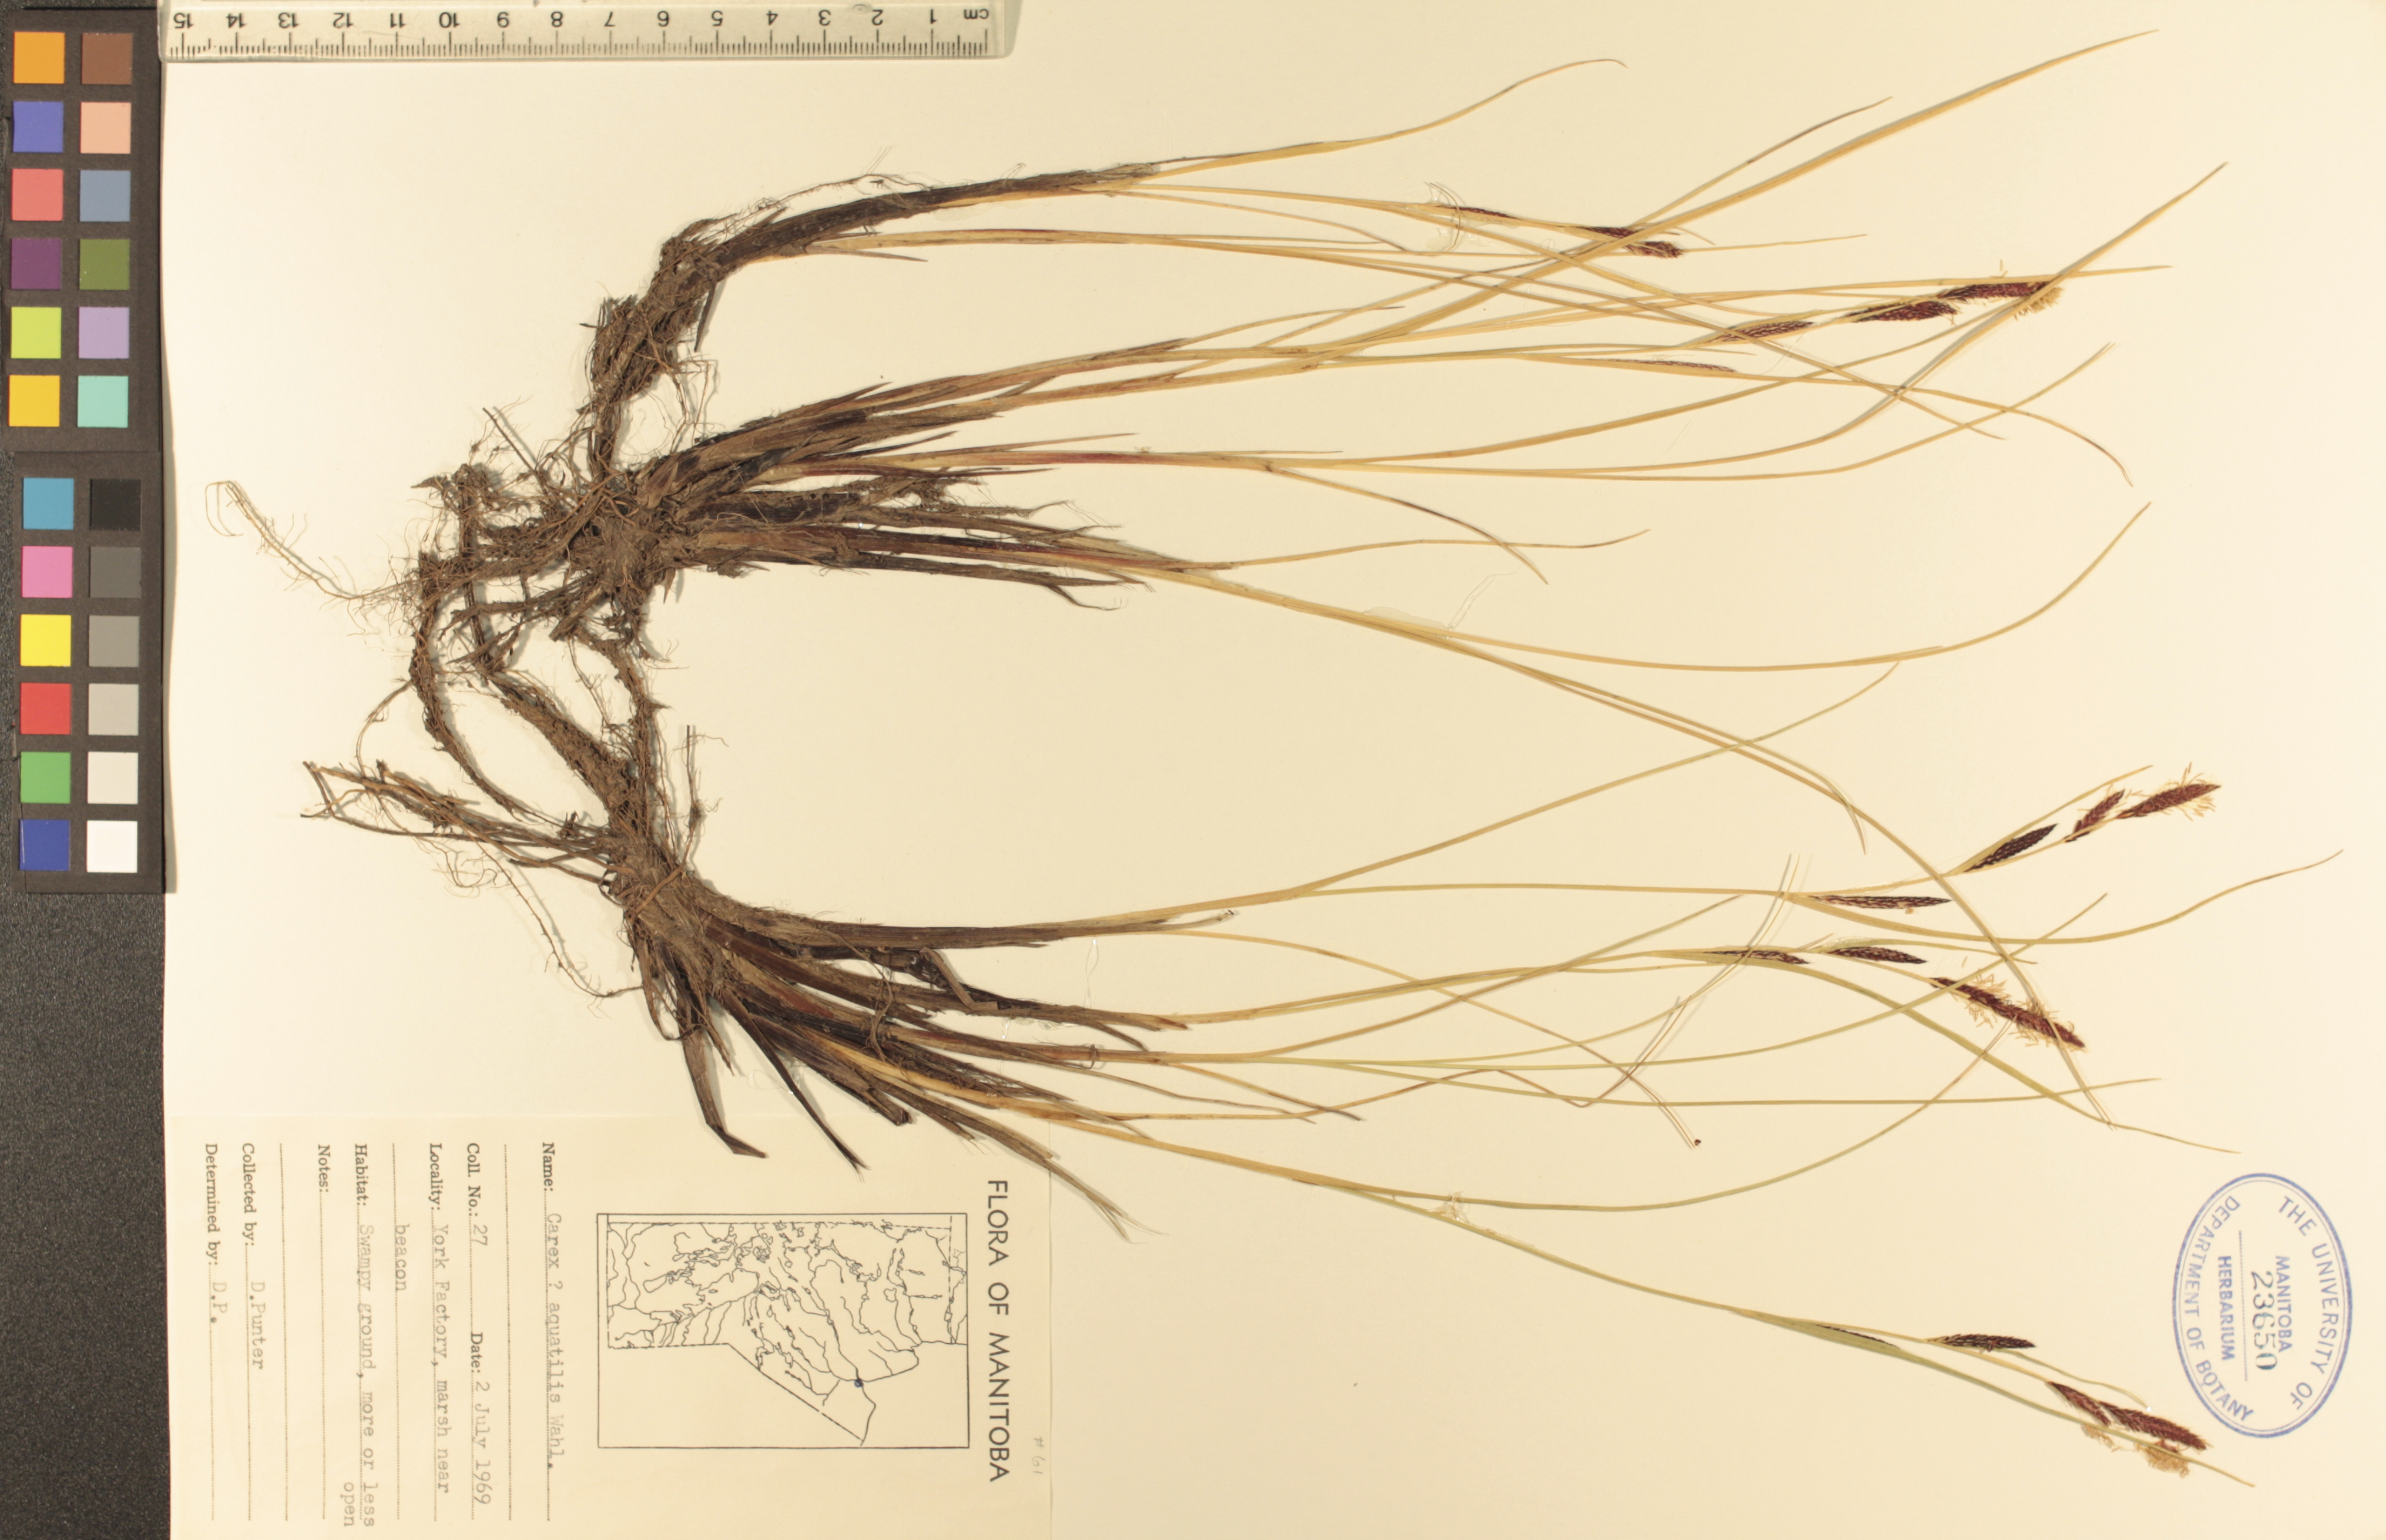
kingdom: Plantae
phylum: Tracheophyta
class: Liliopsida
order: Poales
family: Cyperaceae
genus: Carex
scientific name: Carex aquatilis
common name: Water sedge
